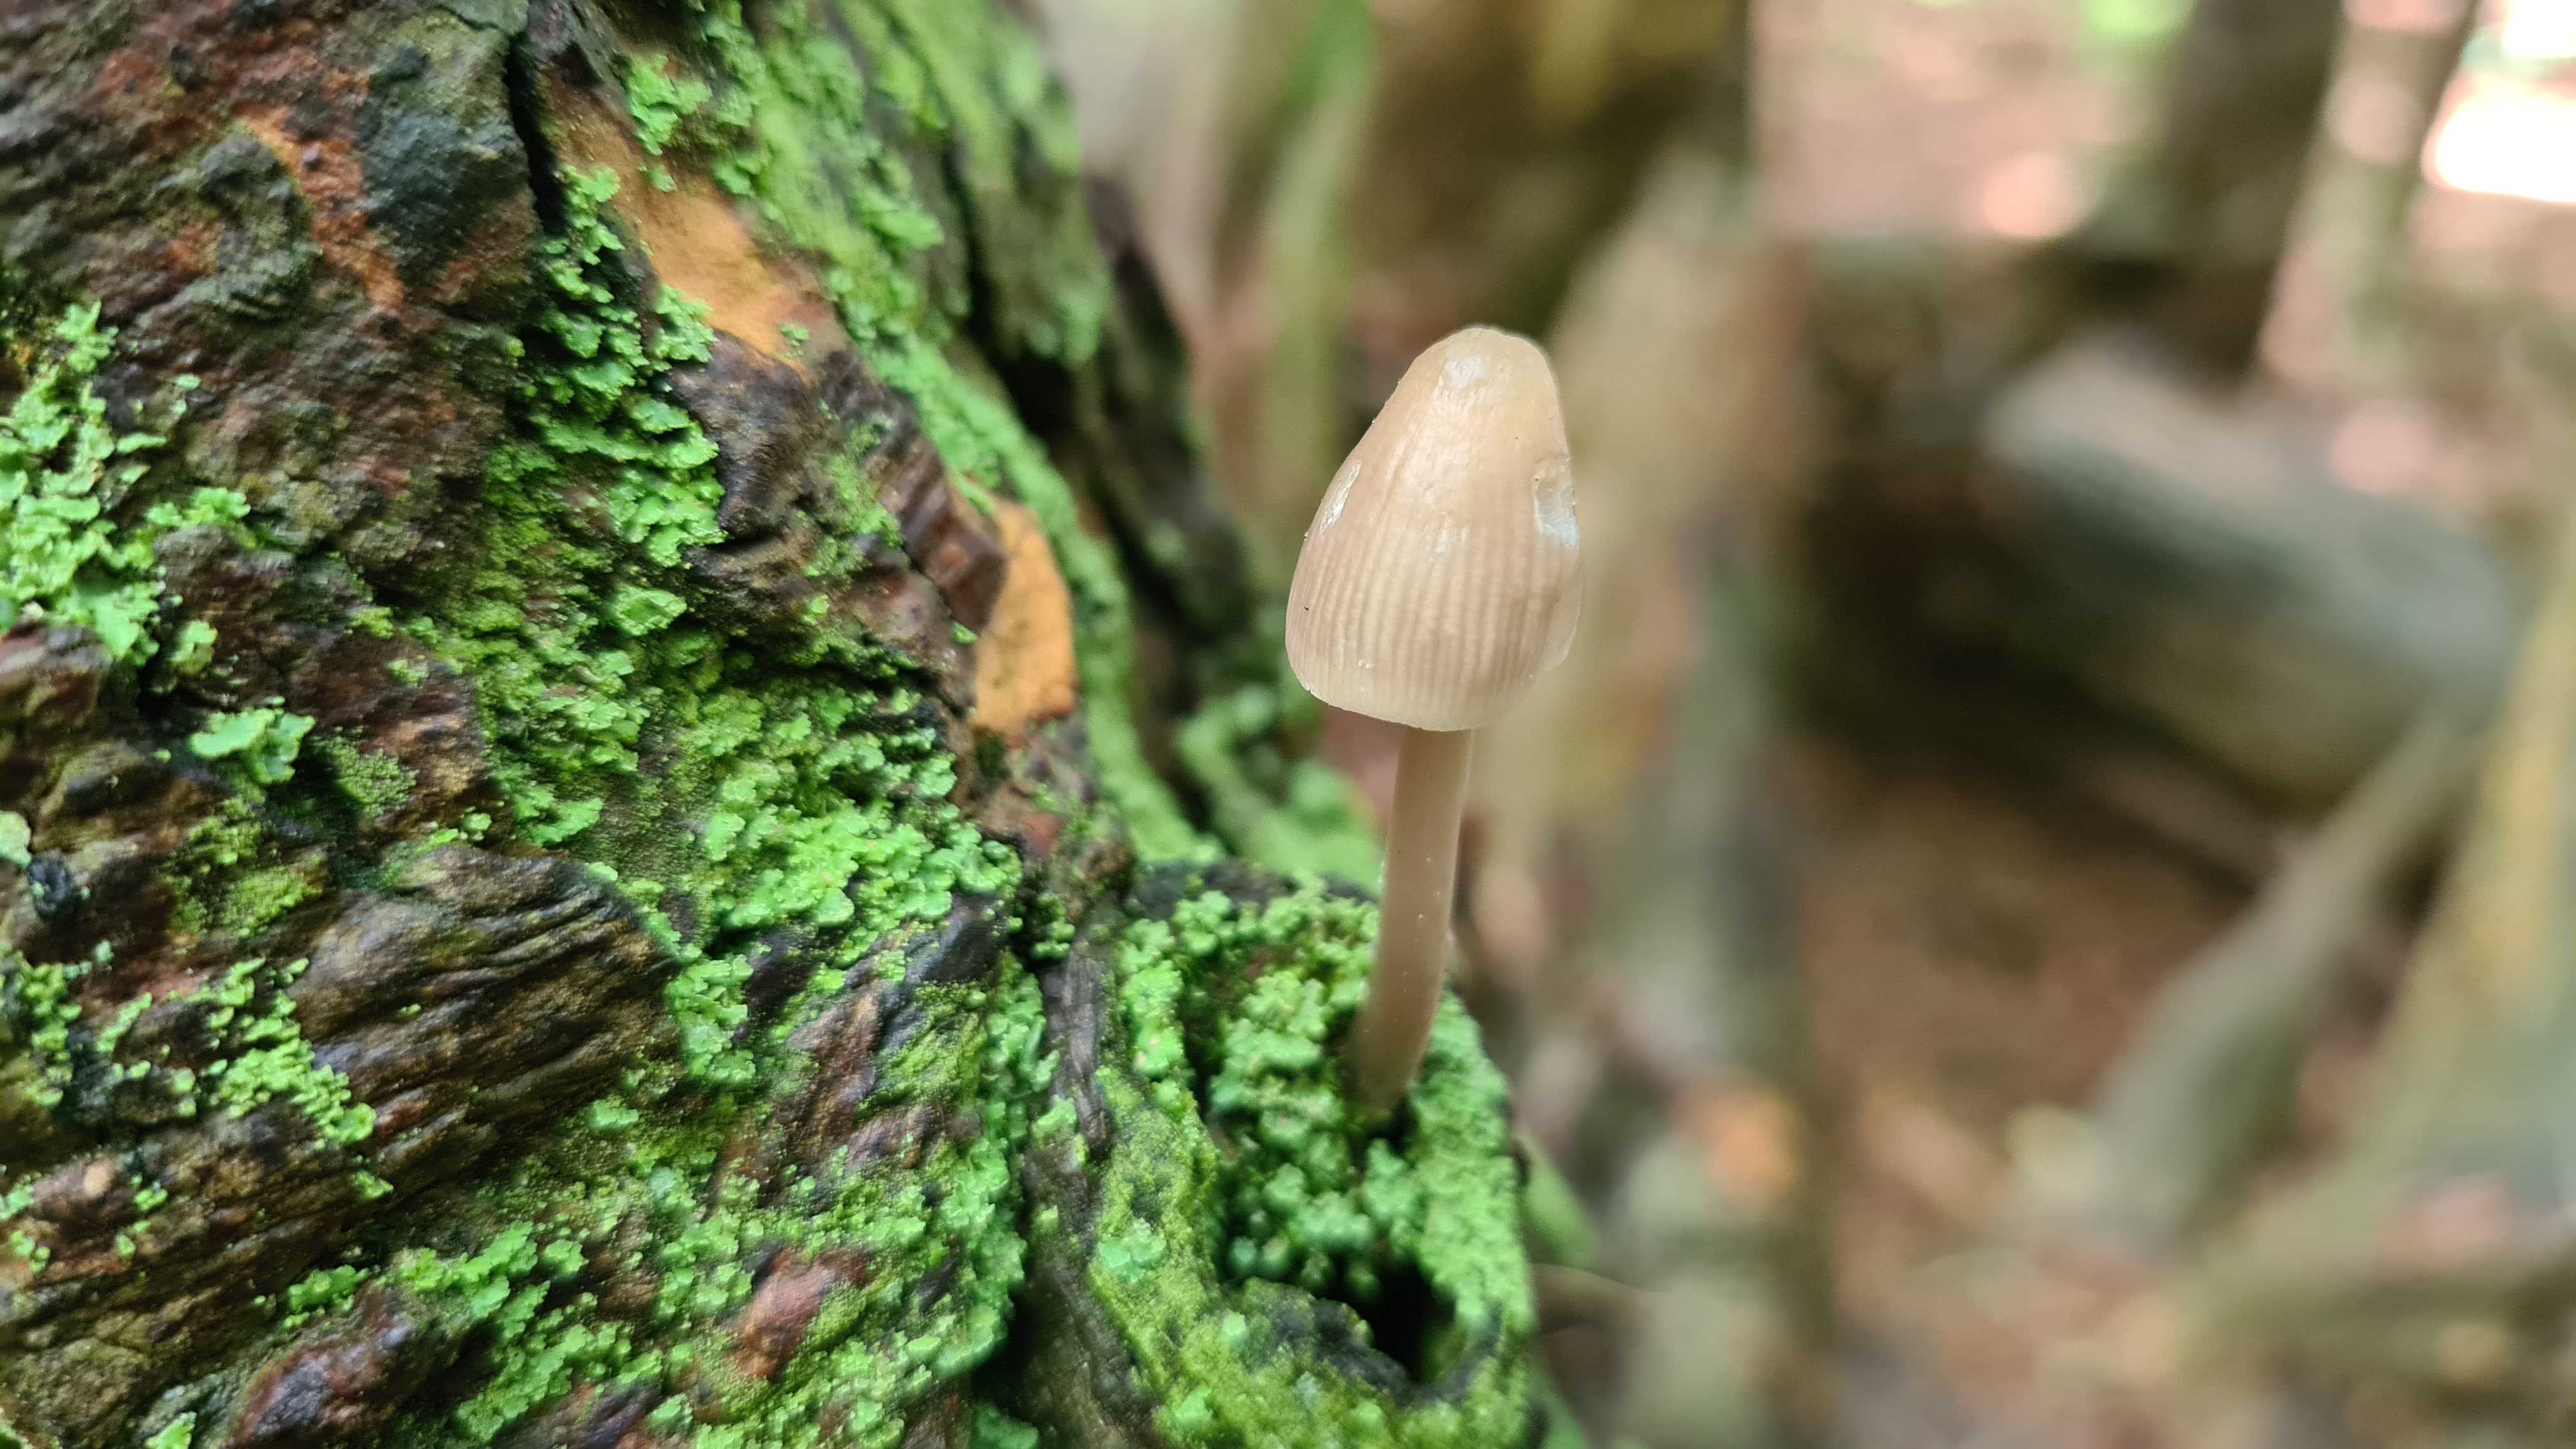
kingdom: Fungi
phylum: Basidiomycota
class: Agaricomycetes
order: Agaricales
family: Mycenaceae
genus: Mycena
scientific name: Mycena galericulata
